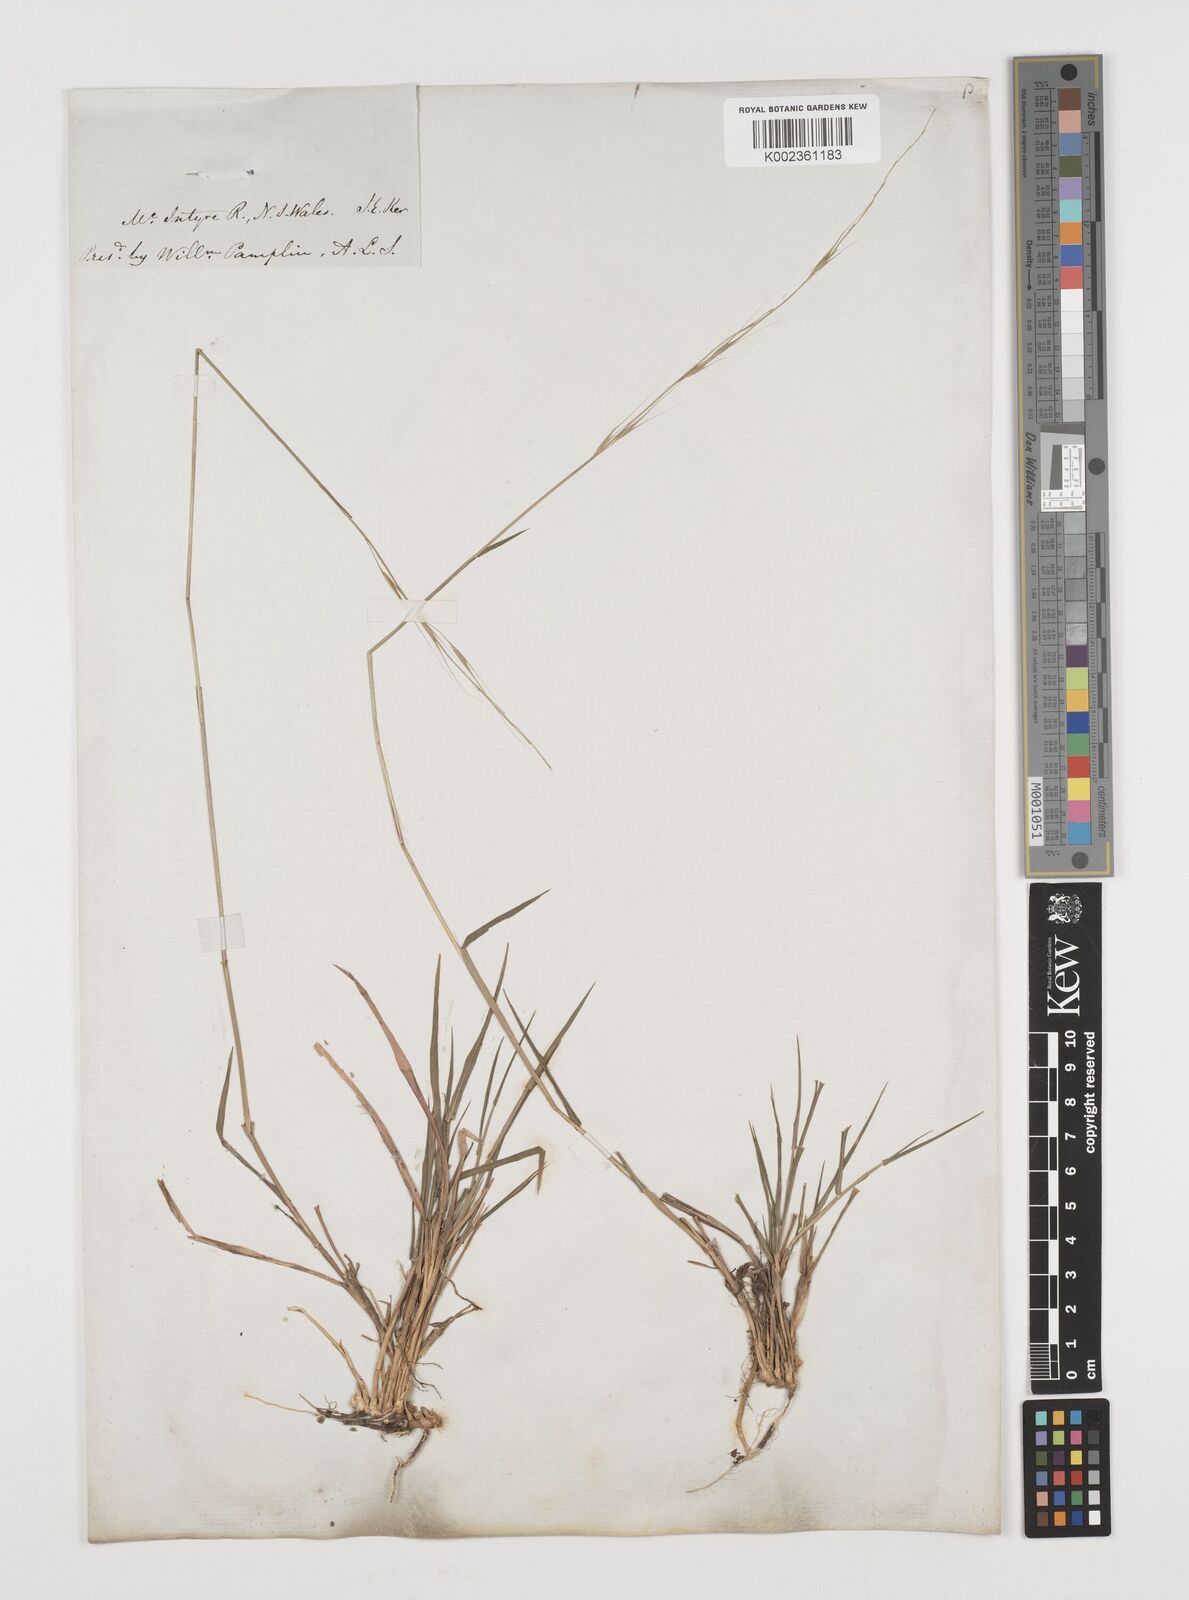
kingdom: Plantae
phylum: Tracheophyta
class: Liliopsida
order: Poales
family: Poaceae
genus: Microlaena
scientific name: Microlaena stipoides
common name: Meadow ricegrass
